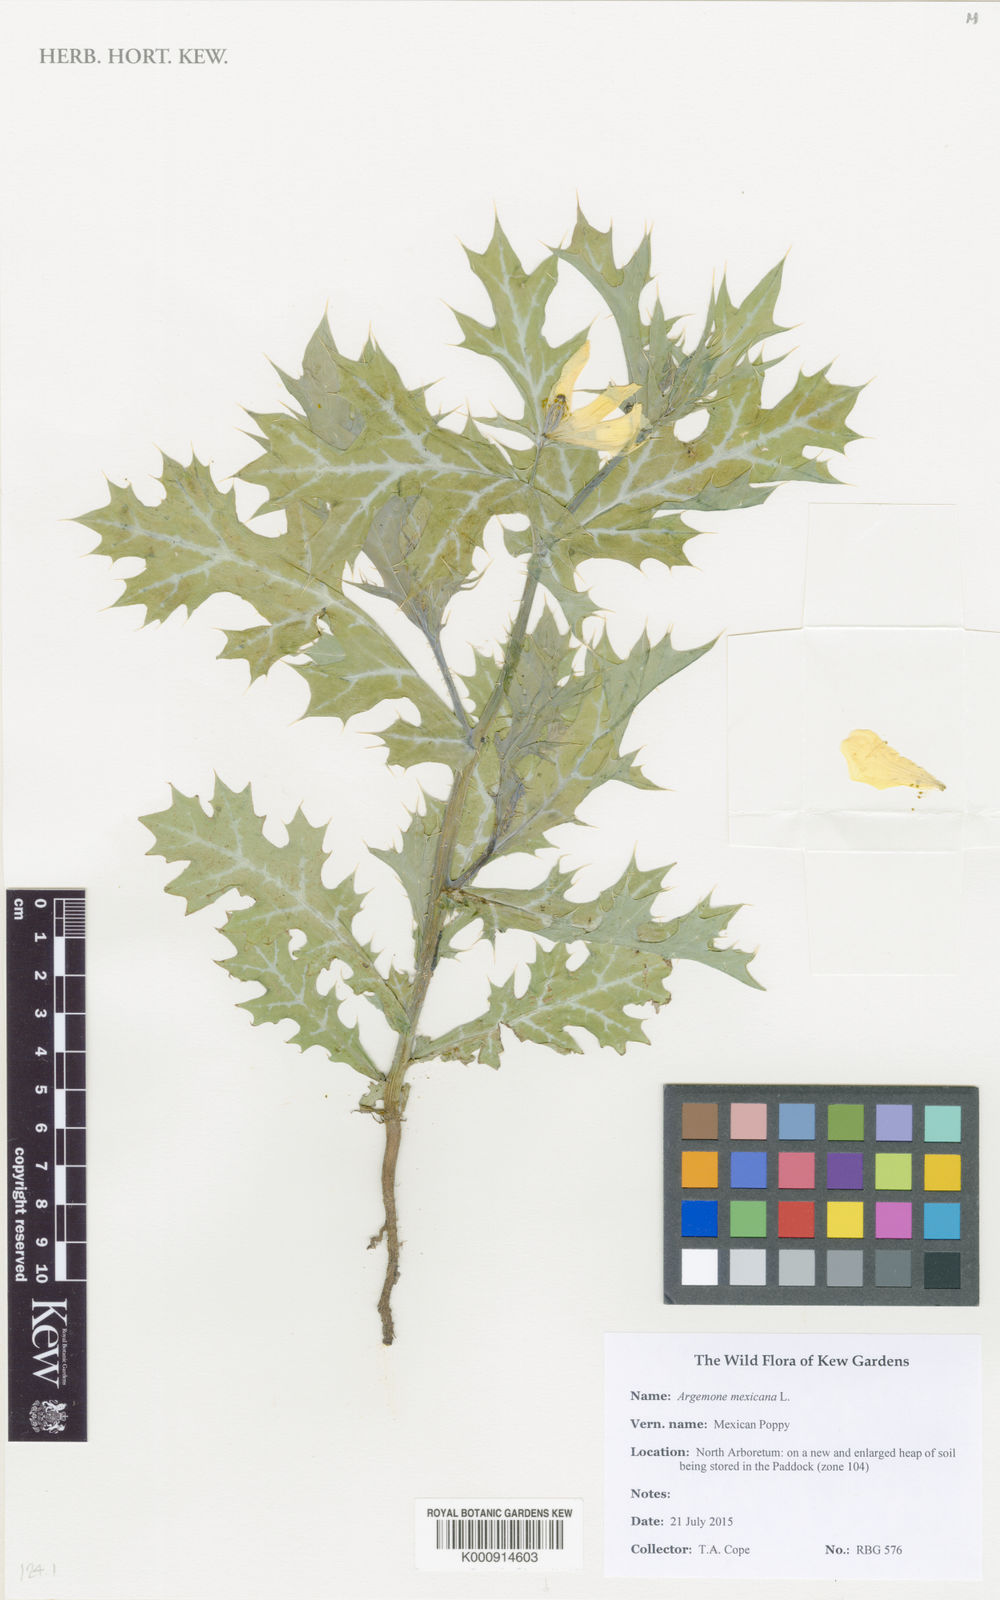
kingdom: Plantae
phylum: Tracheophyta
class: Magnoliopsida
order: Ranunculales
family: Papaveraceae
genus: Argemone
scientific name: Argemone mexicana
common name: Mexican poppy
